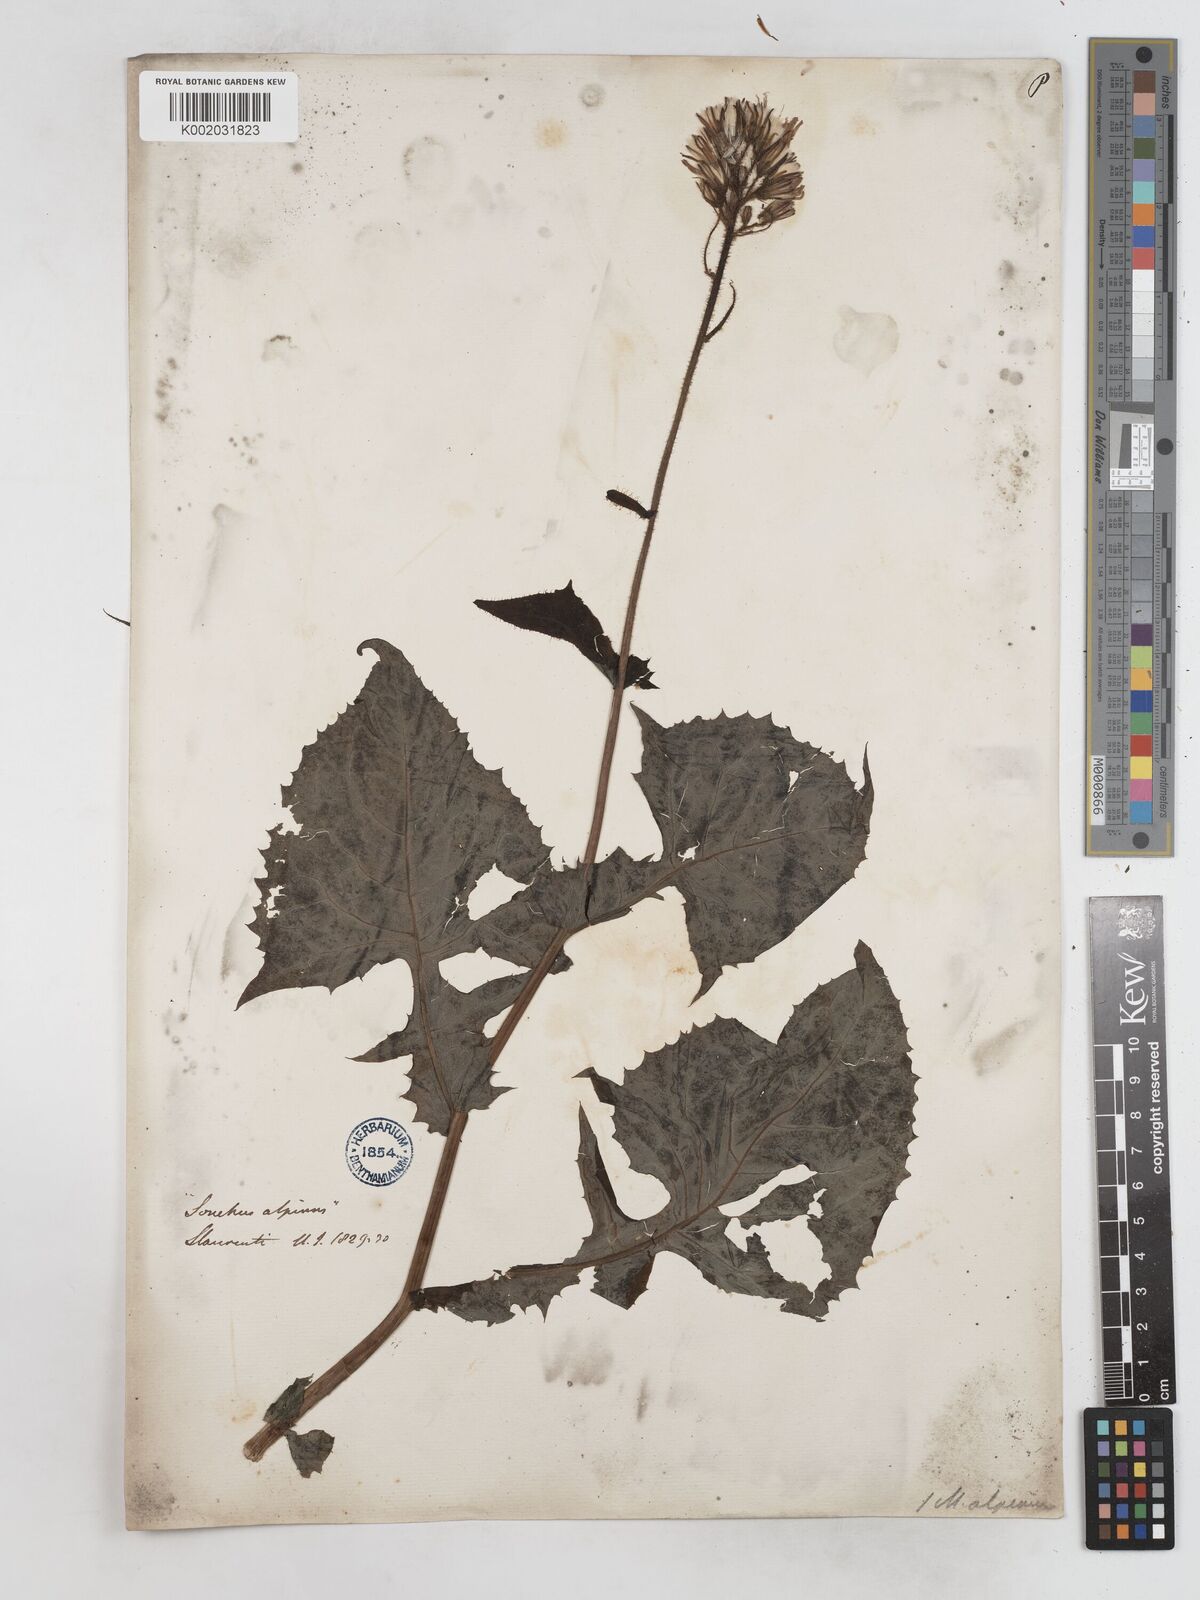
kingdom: Plantae
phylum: Tracheophyta
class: Magnoliopsida
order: Asterales
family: Asteraceae
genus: Cicerbita
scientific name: Cicerbita alpina
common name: Alpine blue-sow-thistle
